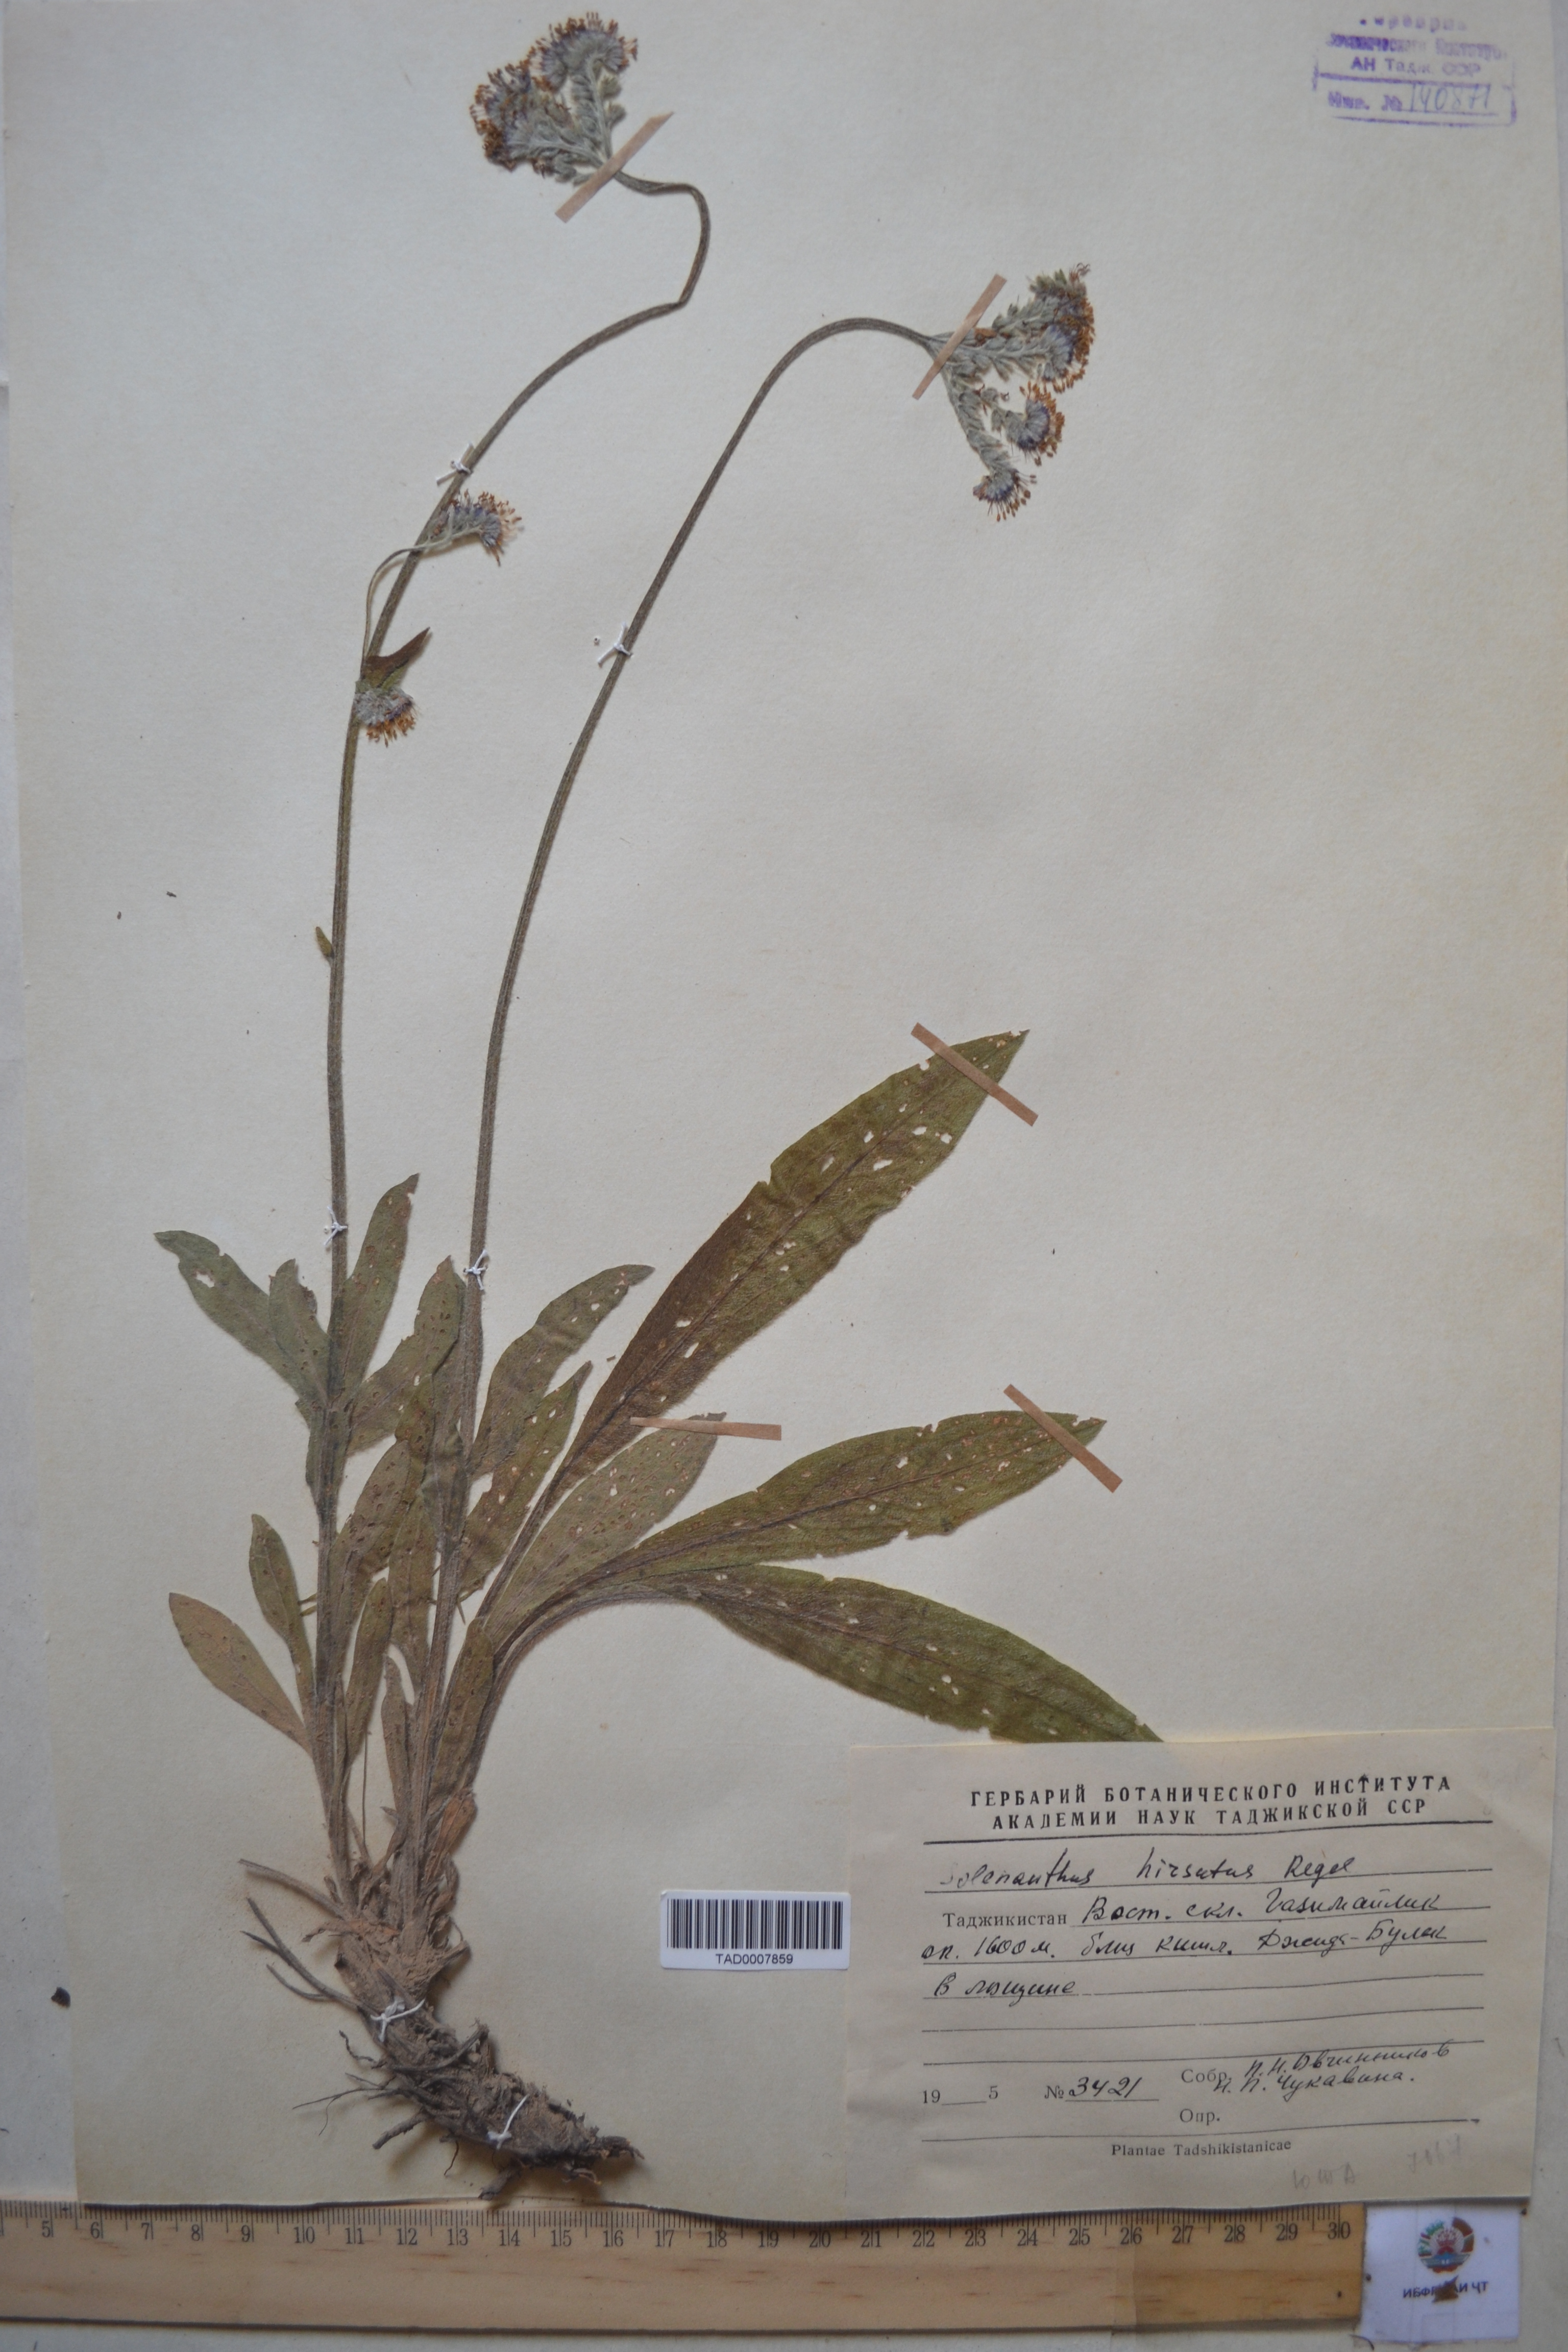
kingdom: Plantae
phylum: Tracheophyta
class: Magnoliopsida
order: Boraginales
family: Boraginaceae
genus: Solenanthus
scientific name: Solenanthus hirsutus
